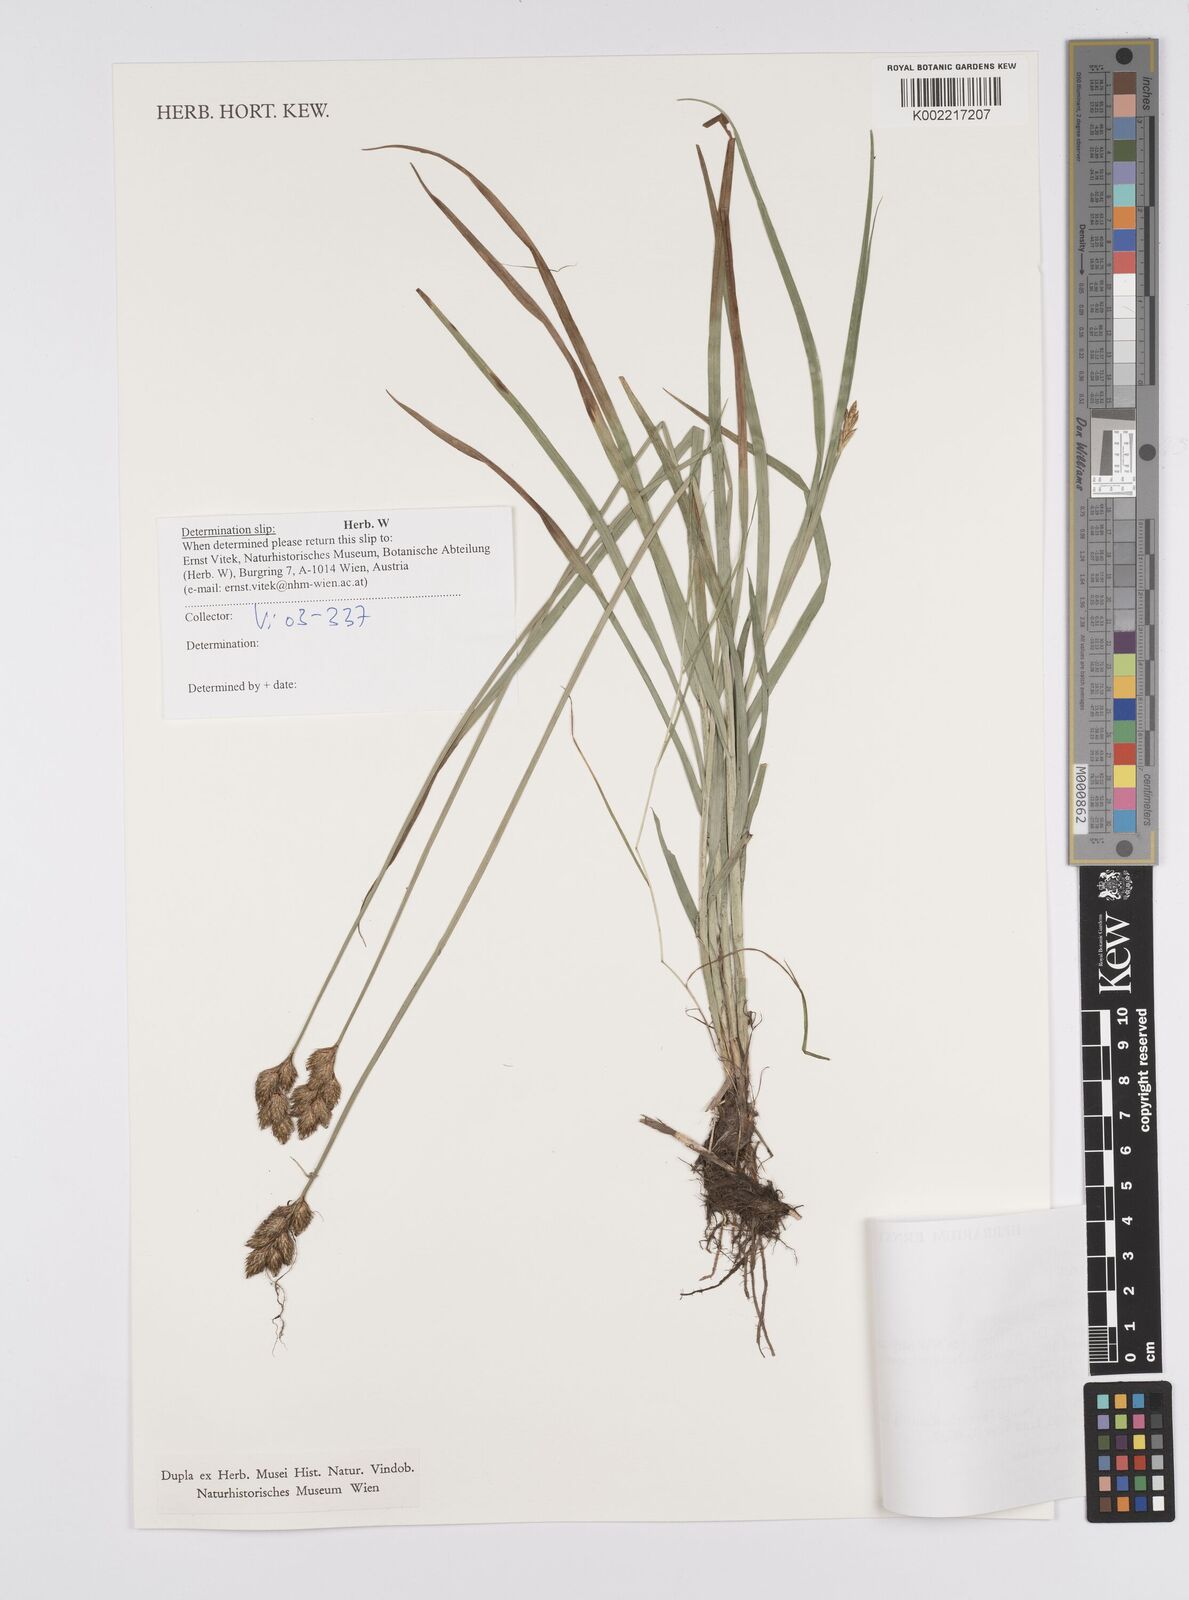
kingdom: Plantae
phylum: Tracheophyta
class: Liliopsida
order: Poales
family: Cyperaceae
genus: Carex
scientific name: Carex
